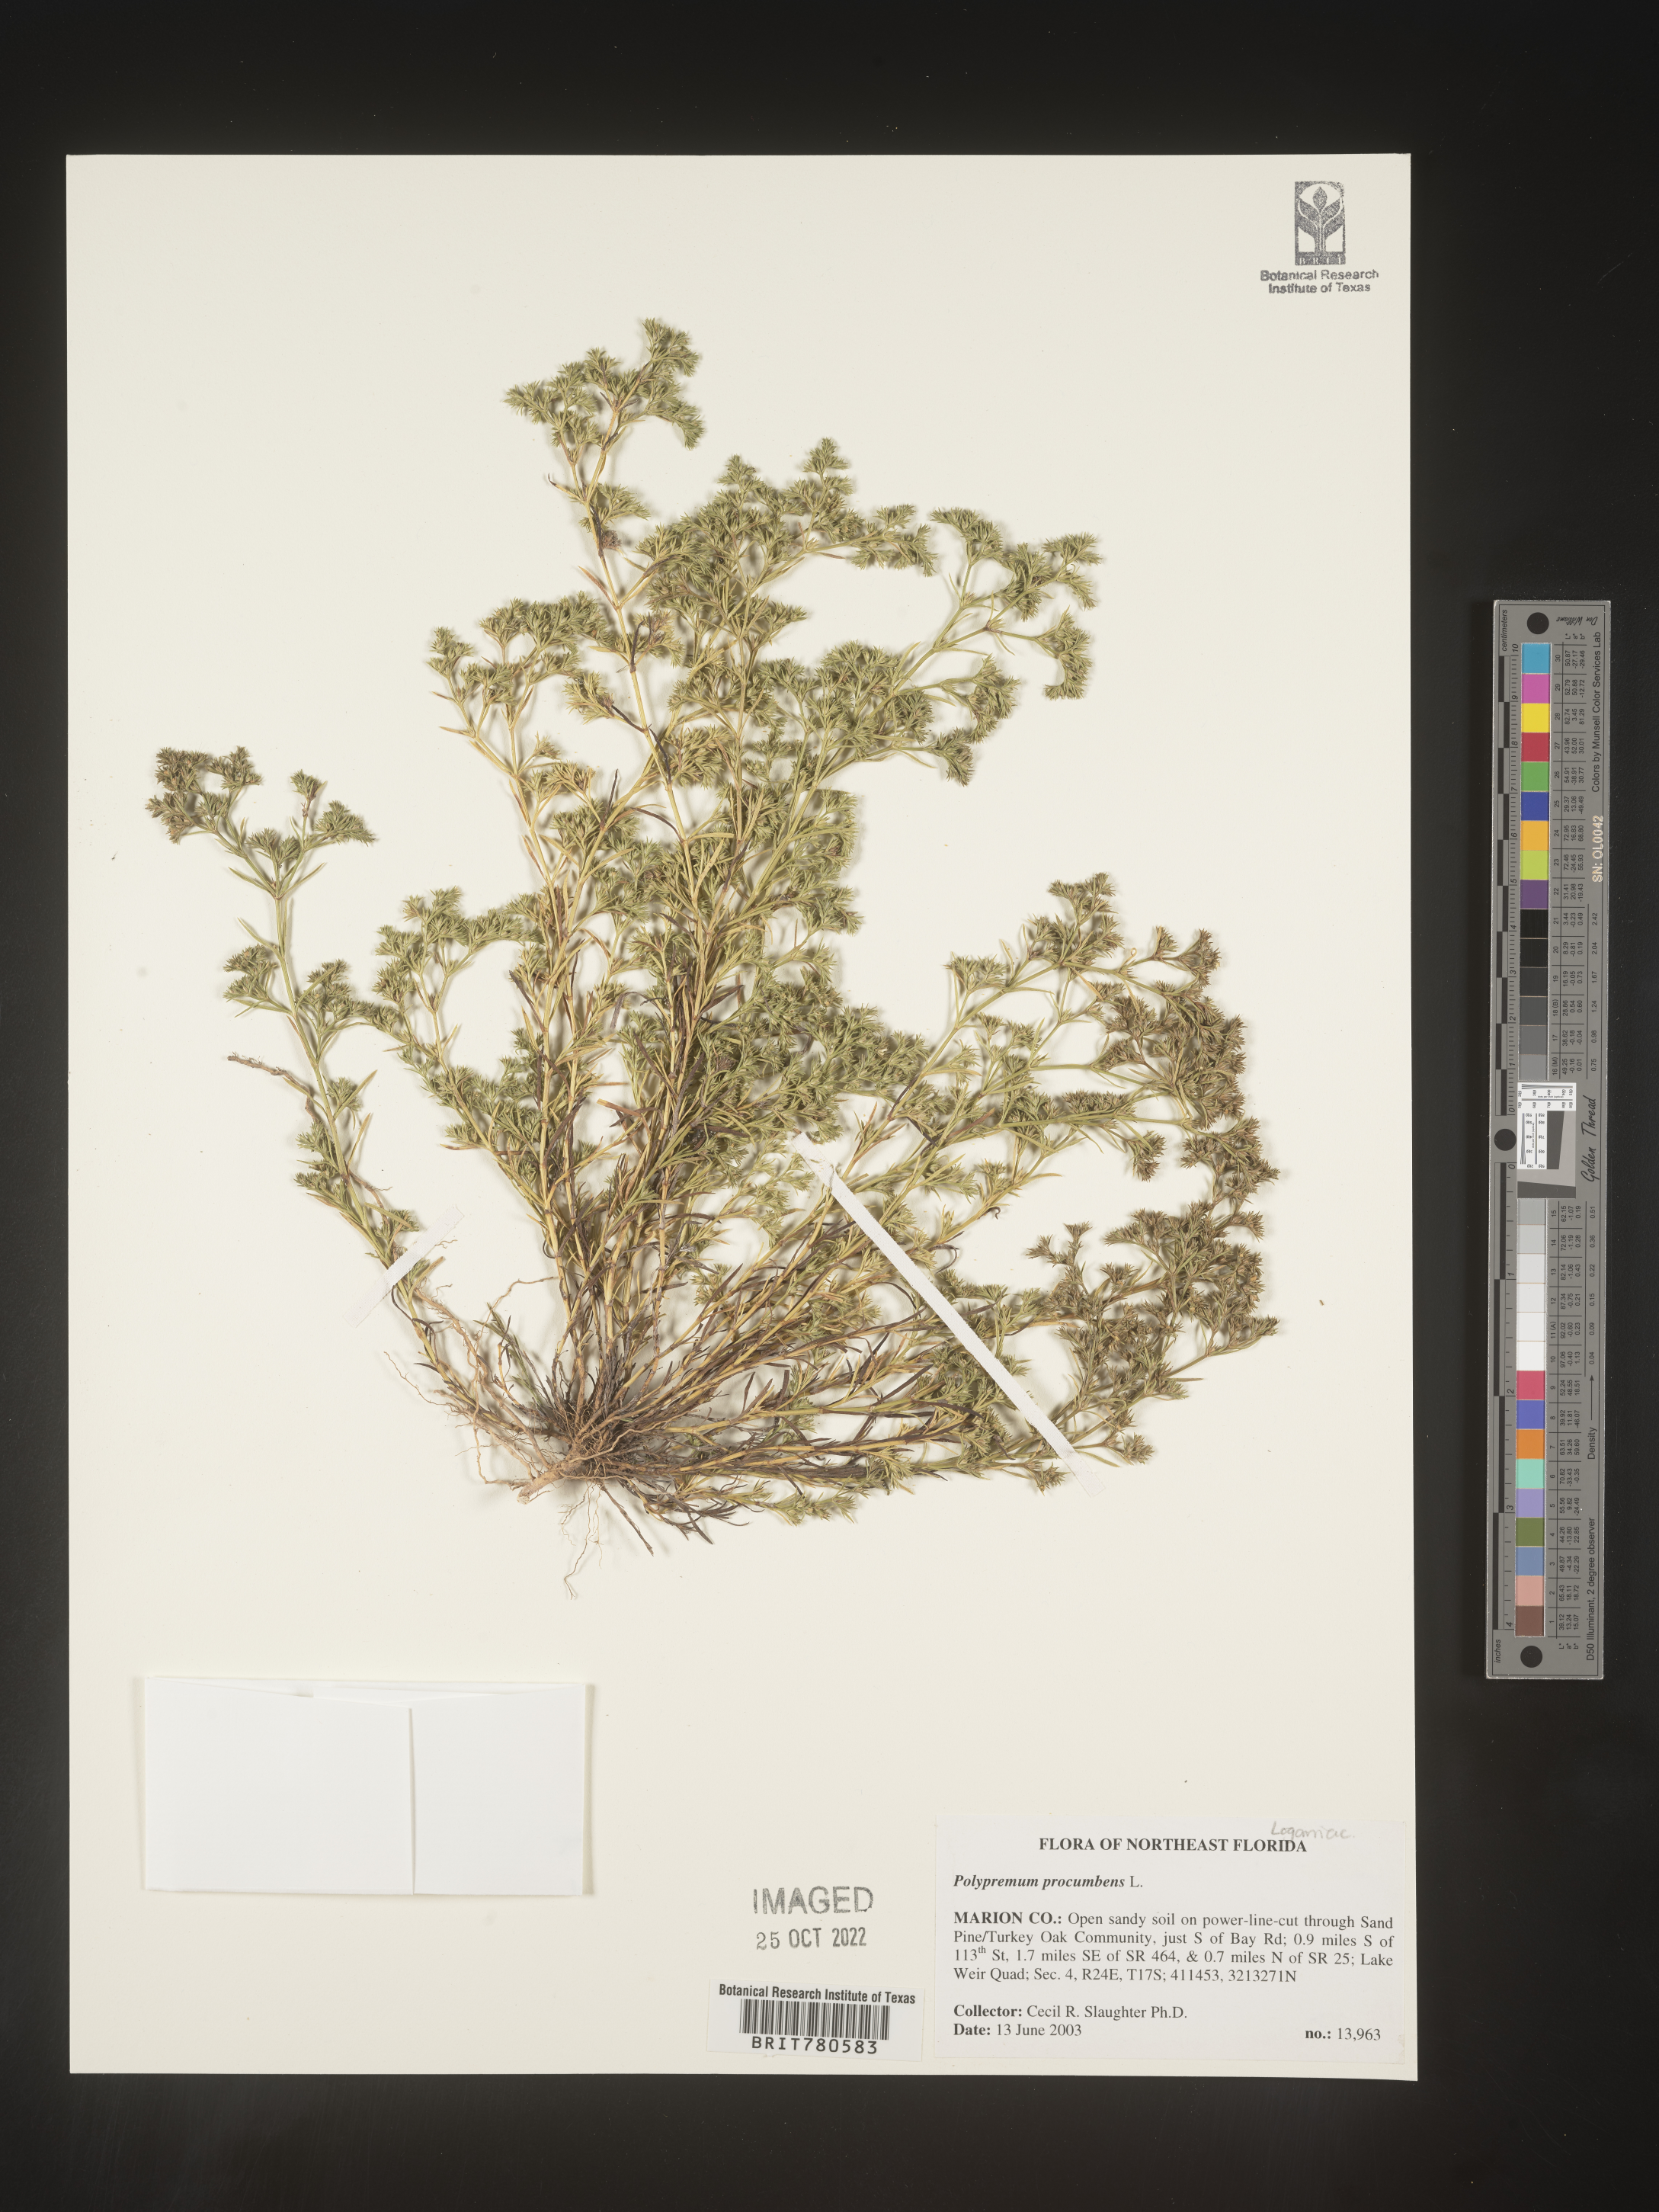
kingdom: Plantae
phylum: Tracheophyta
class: Magnoliopsida
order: Lamiales
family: Tetrachondraceae
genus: Polypremum
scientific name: Polypremum procumbens
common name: Juniper-leaf
